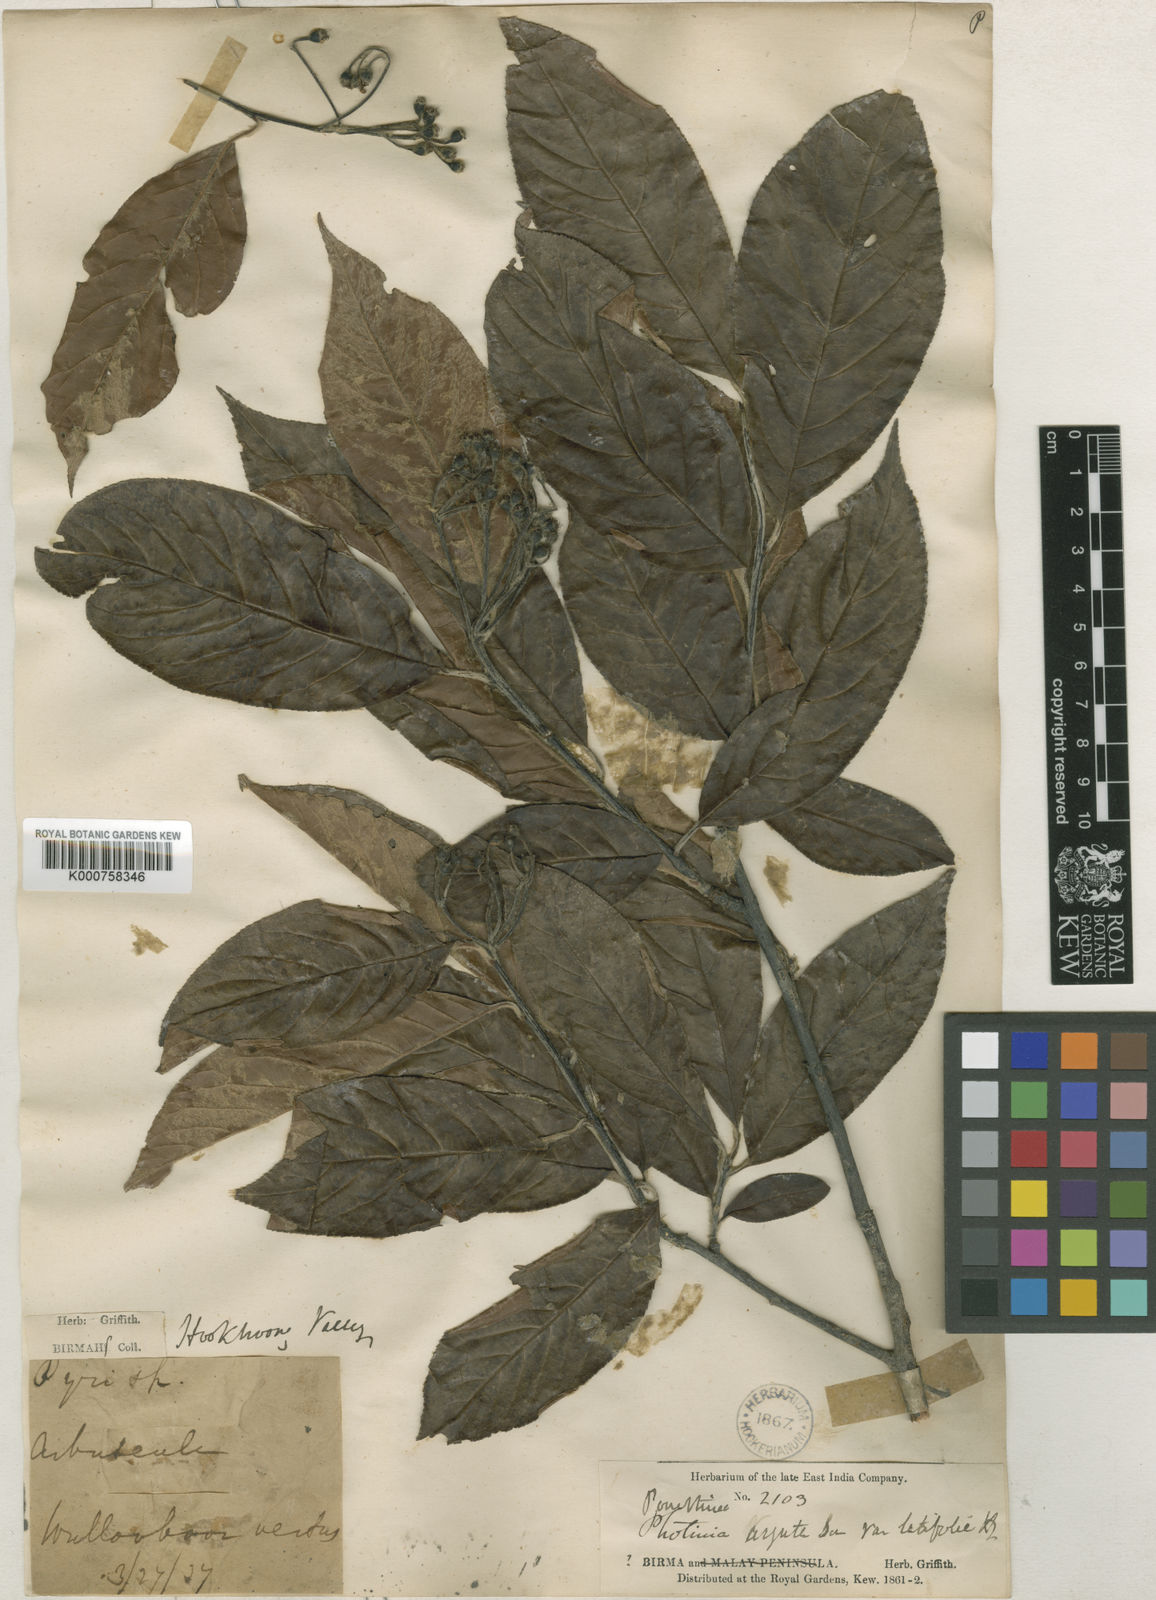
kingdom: Plantae
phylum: Tracheophyta
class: Magnoliopsida
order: Rosales
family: Rosaceae
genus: Photinia
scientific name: Photinia
